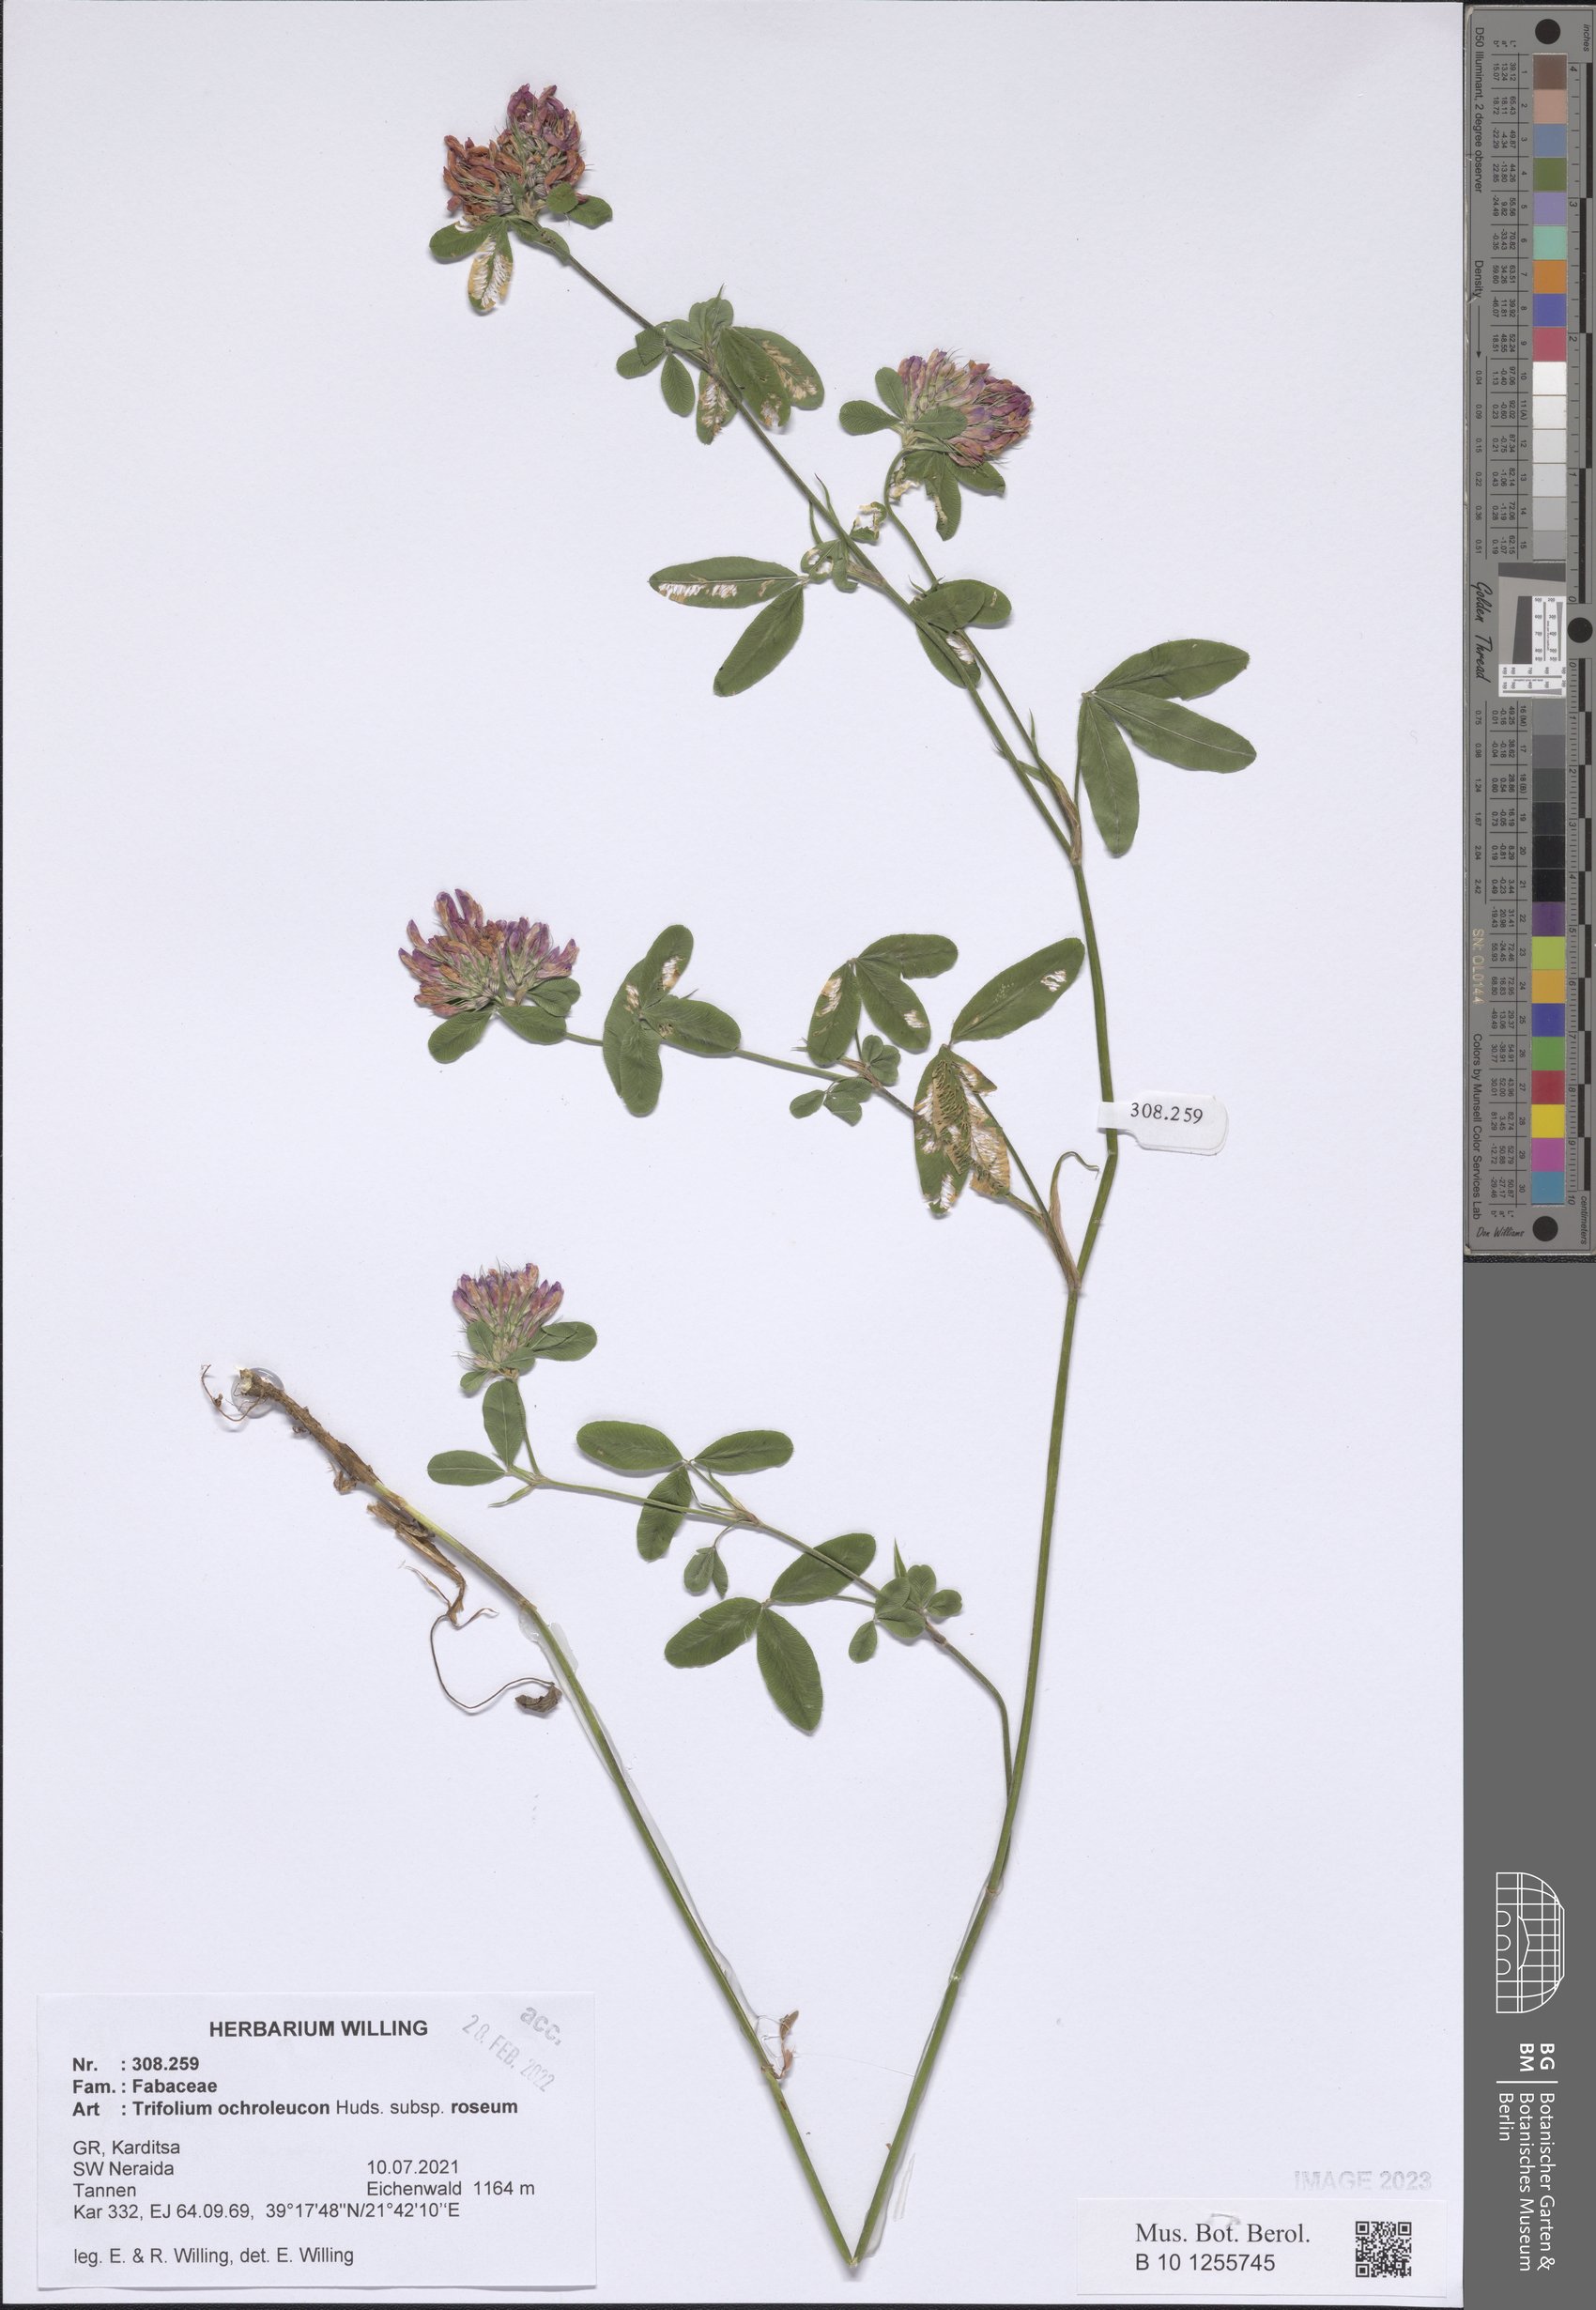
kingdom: Plantae
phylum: Tracheophyta
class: Magnoliopsida
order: Fabales
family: Fabaceae
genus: Trifolium
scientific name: Trifolium ochroleucon
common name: Sulphur clover
